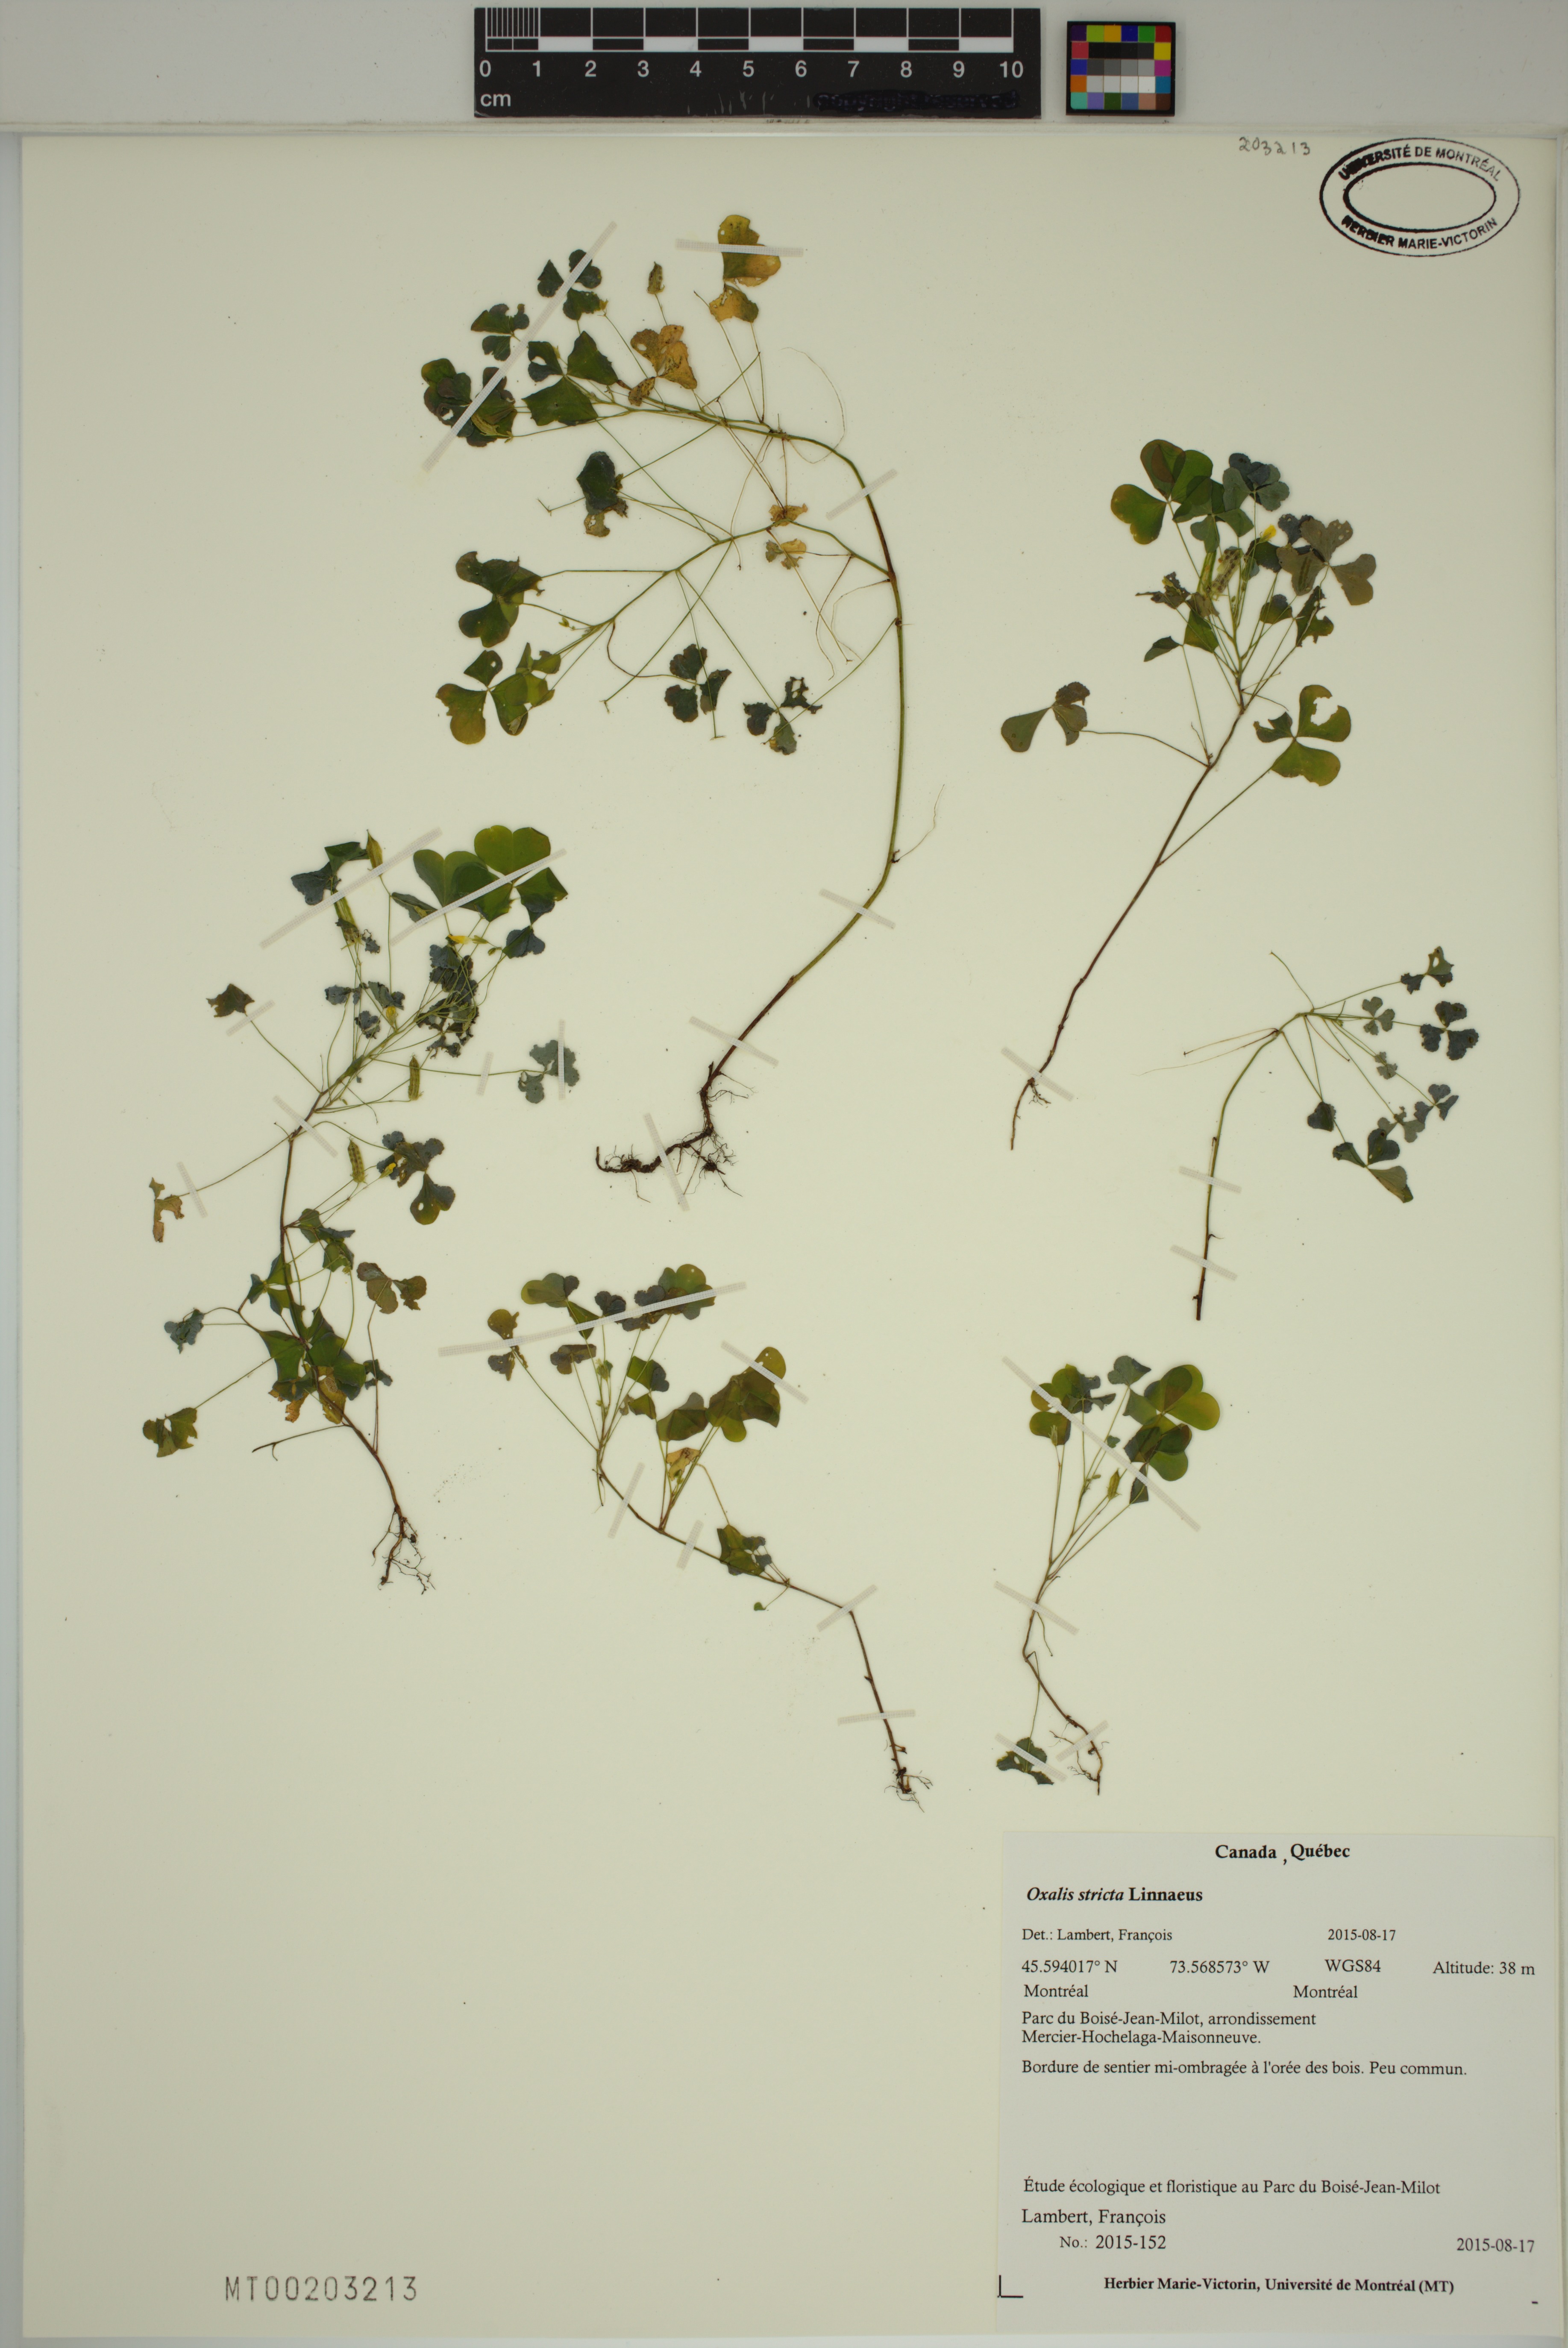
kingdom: Plantae
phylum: Tracheophyta
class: Magnoliopsida
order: Oxalidales
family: Oxalidaceae
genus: Oxalis
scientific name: Oxalis stricta
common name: Upright yellow-sorrel
